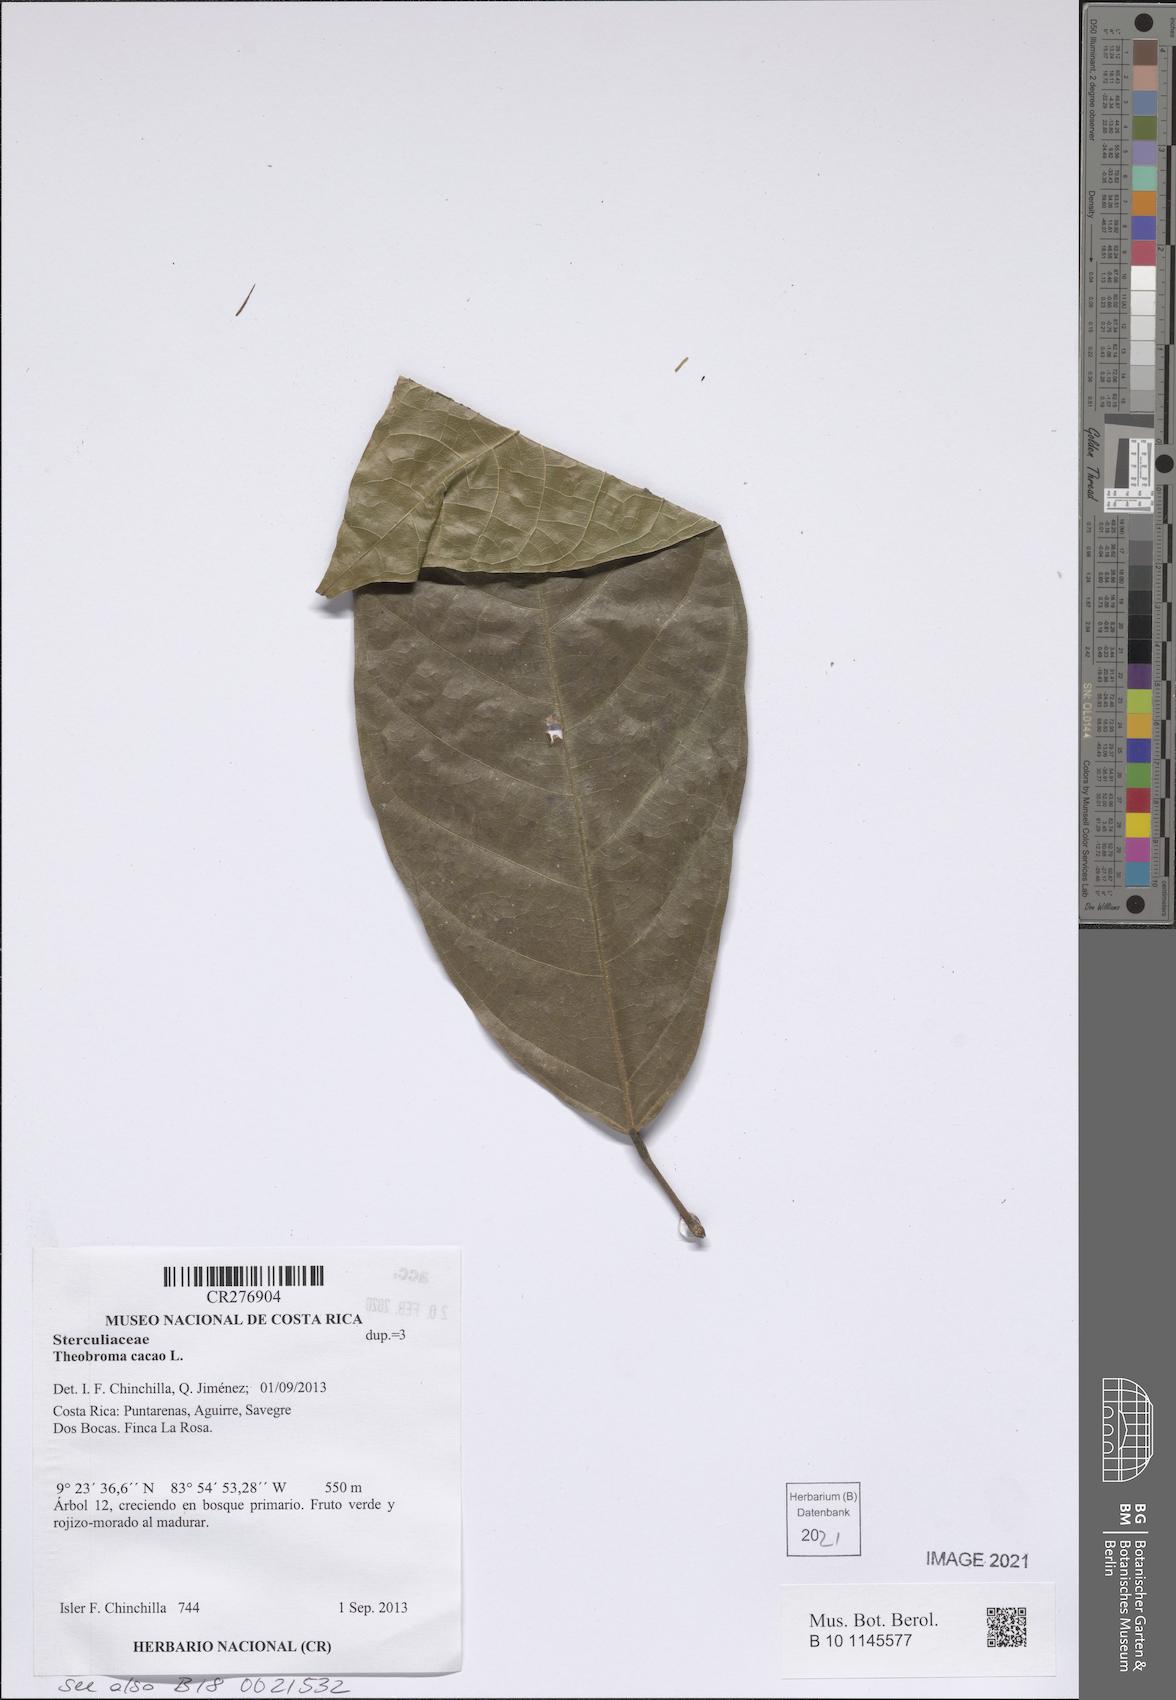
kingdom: Plantae
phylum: Tracheophyta
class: Magnoliopsida
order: Malvales
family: Malvaceae
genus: Theobroma
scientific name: Theobroma cacao
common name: Cocoa
